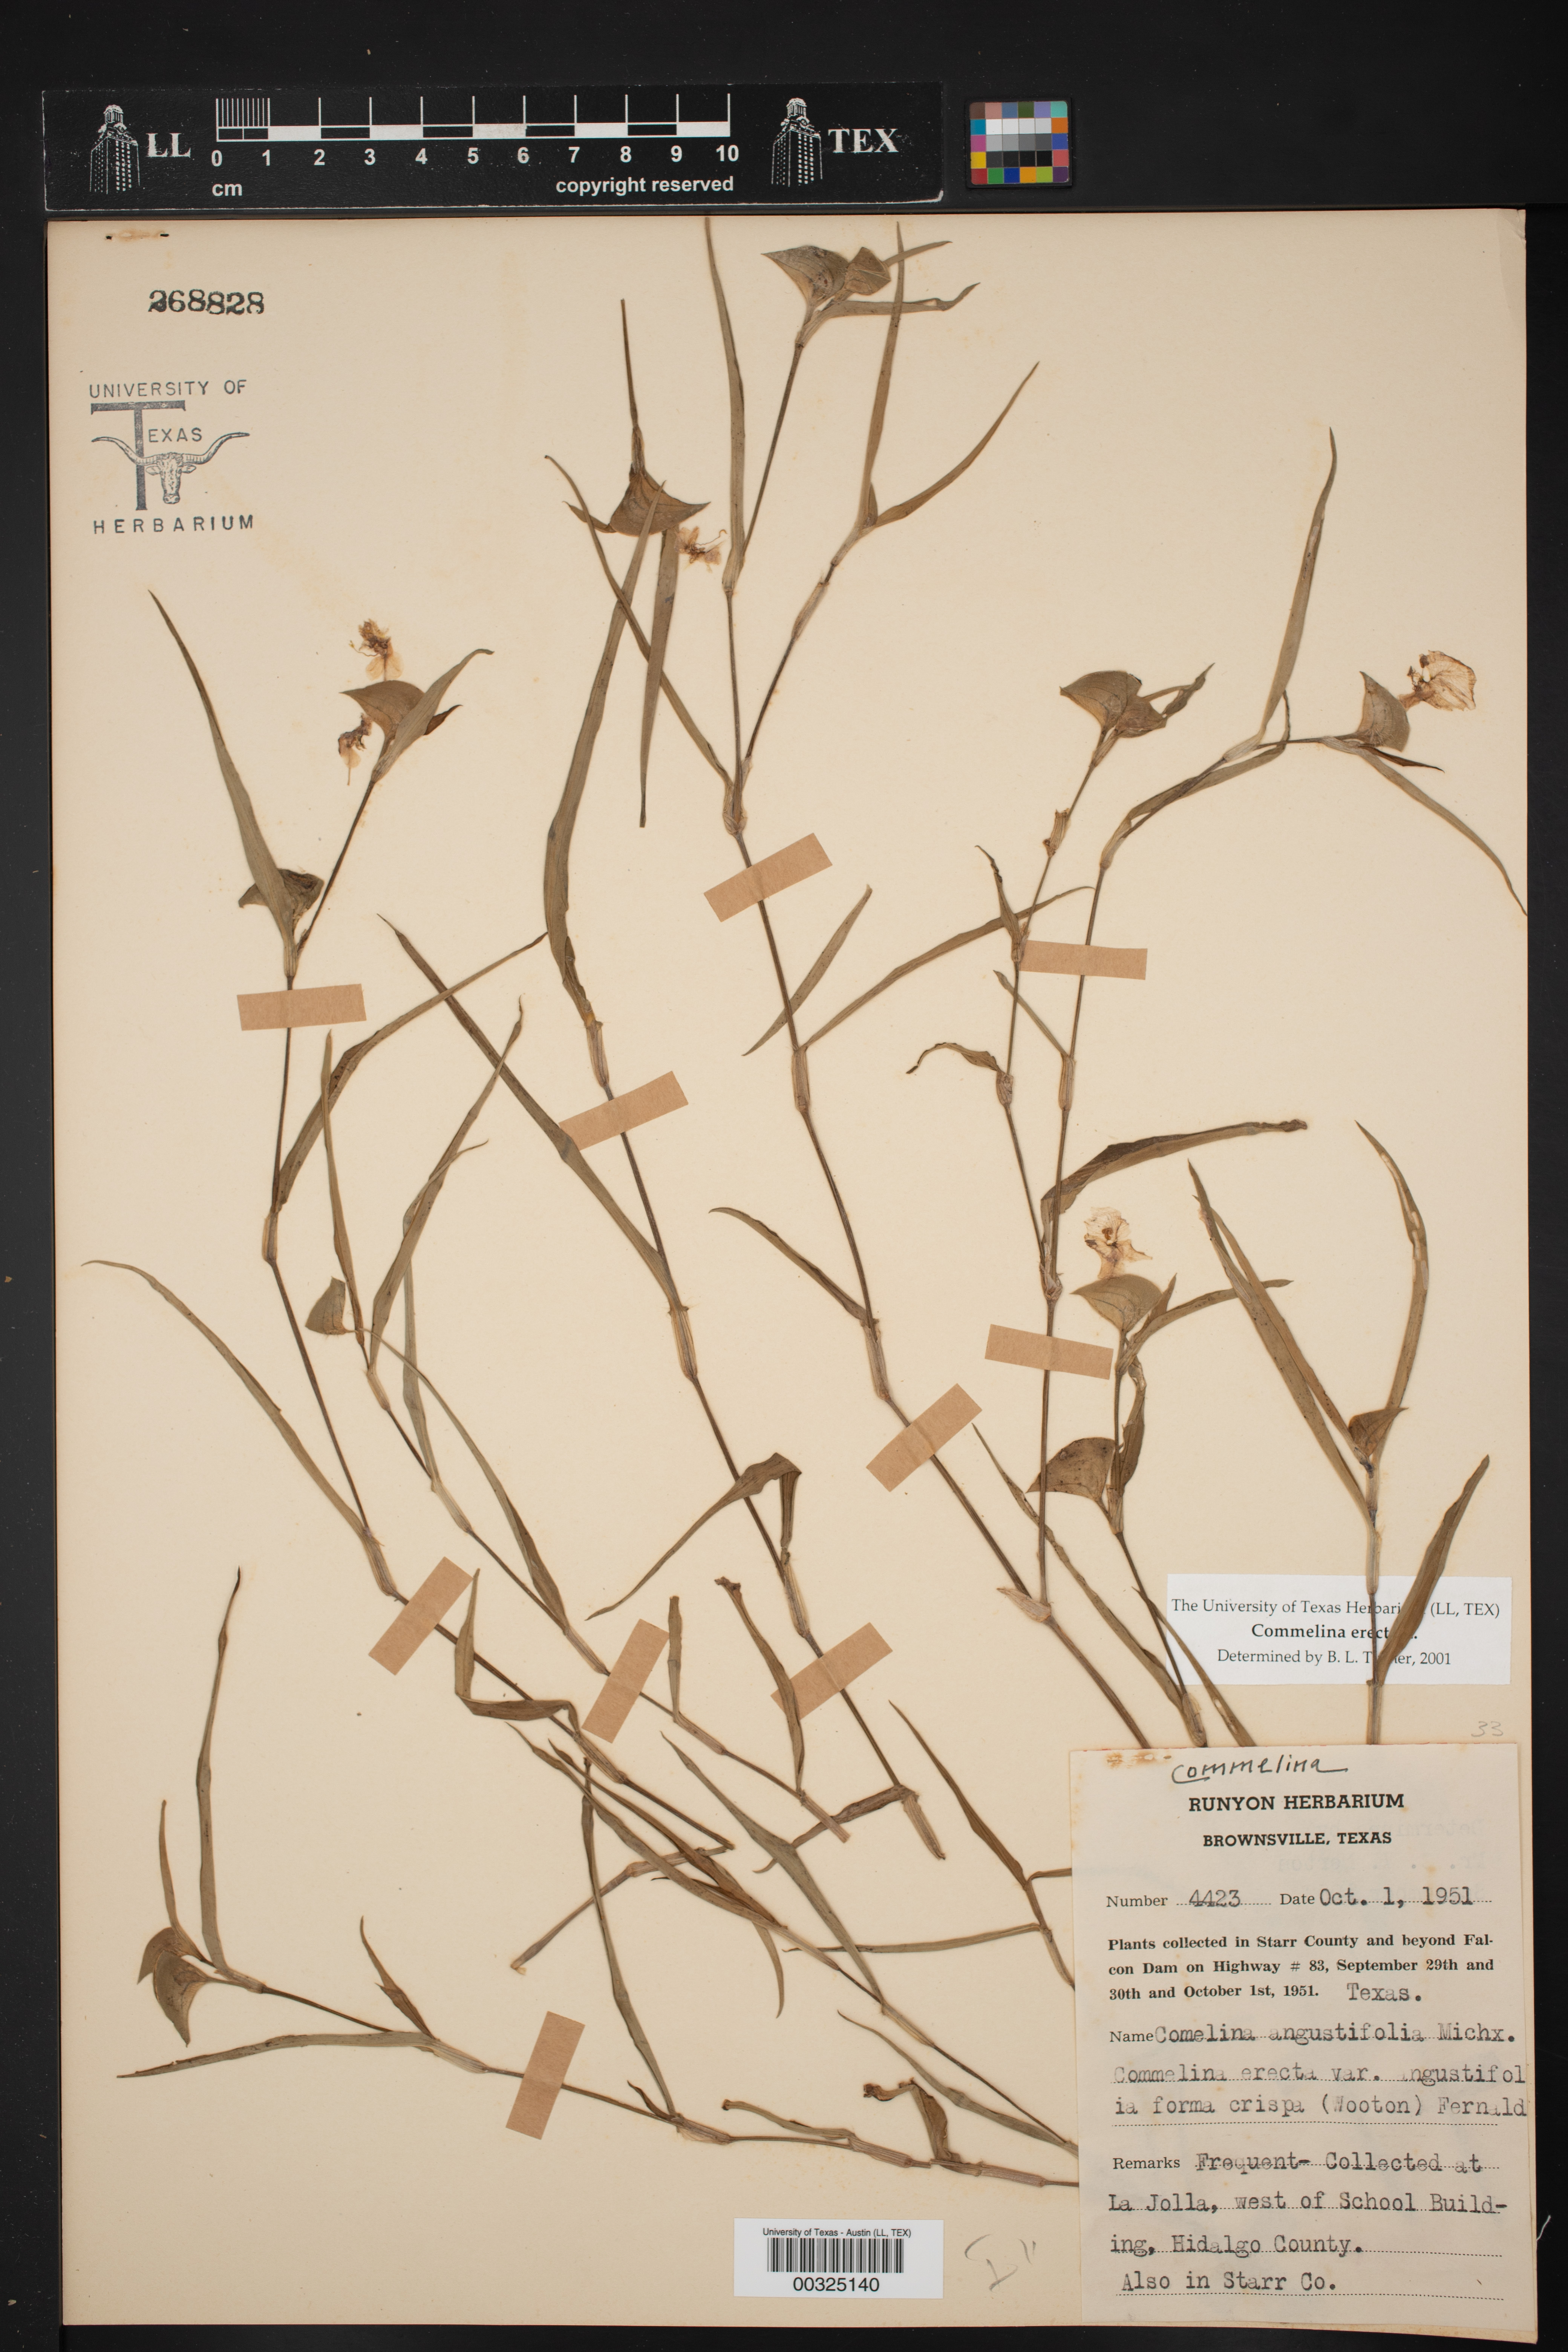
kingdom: Plantae
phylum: Tracheophyta
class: Liliopsida
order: Commelinales
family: Commelinaceae
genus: Commelina
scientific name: Commelina erecta
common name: Blousel blommetjie
